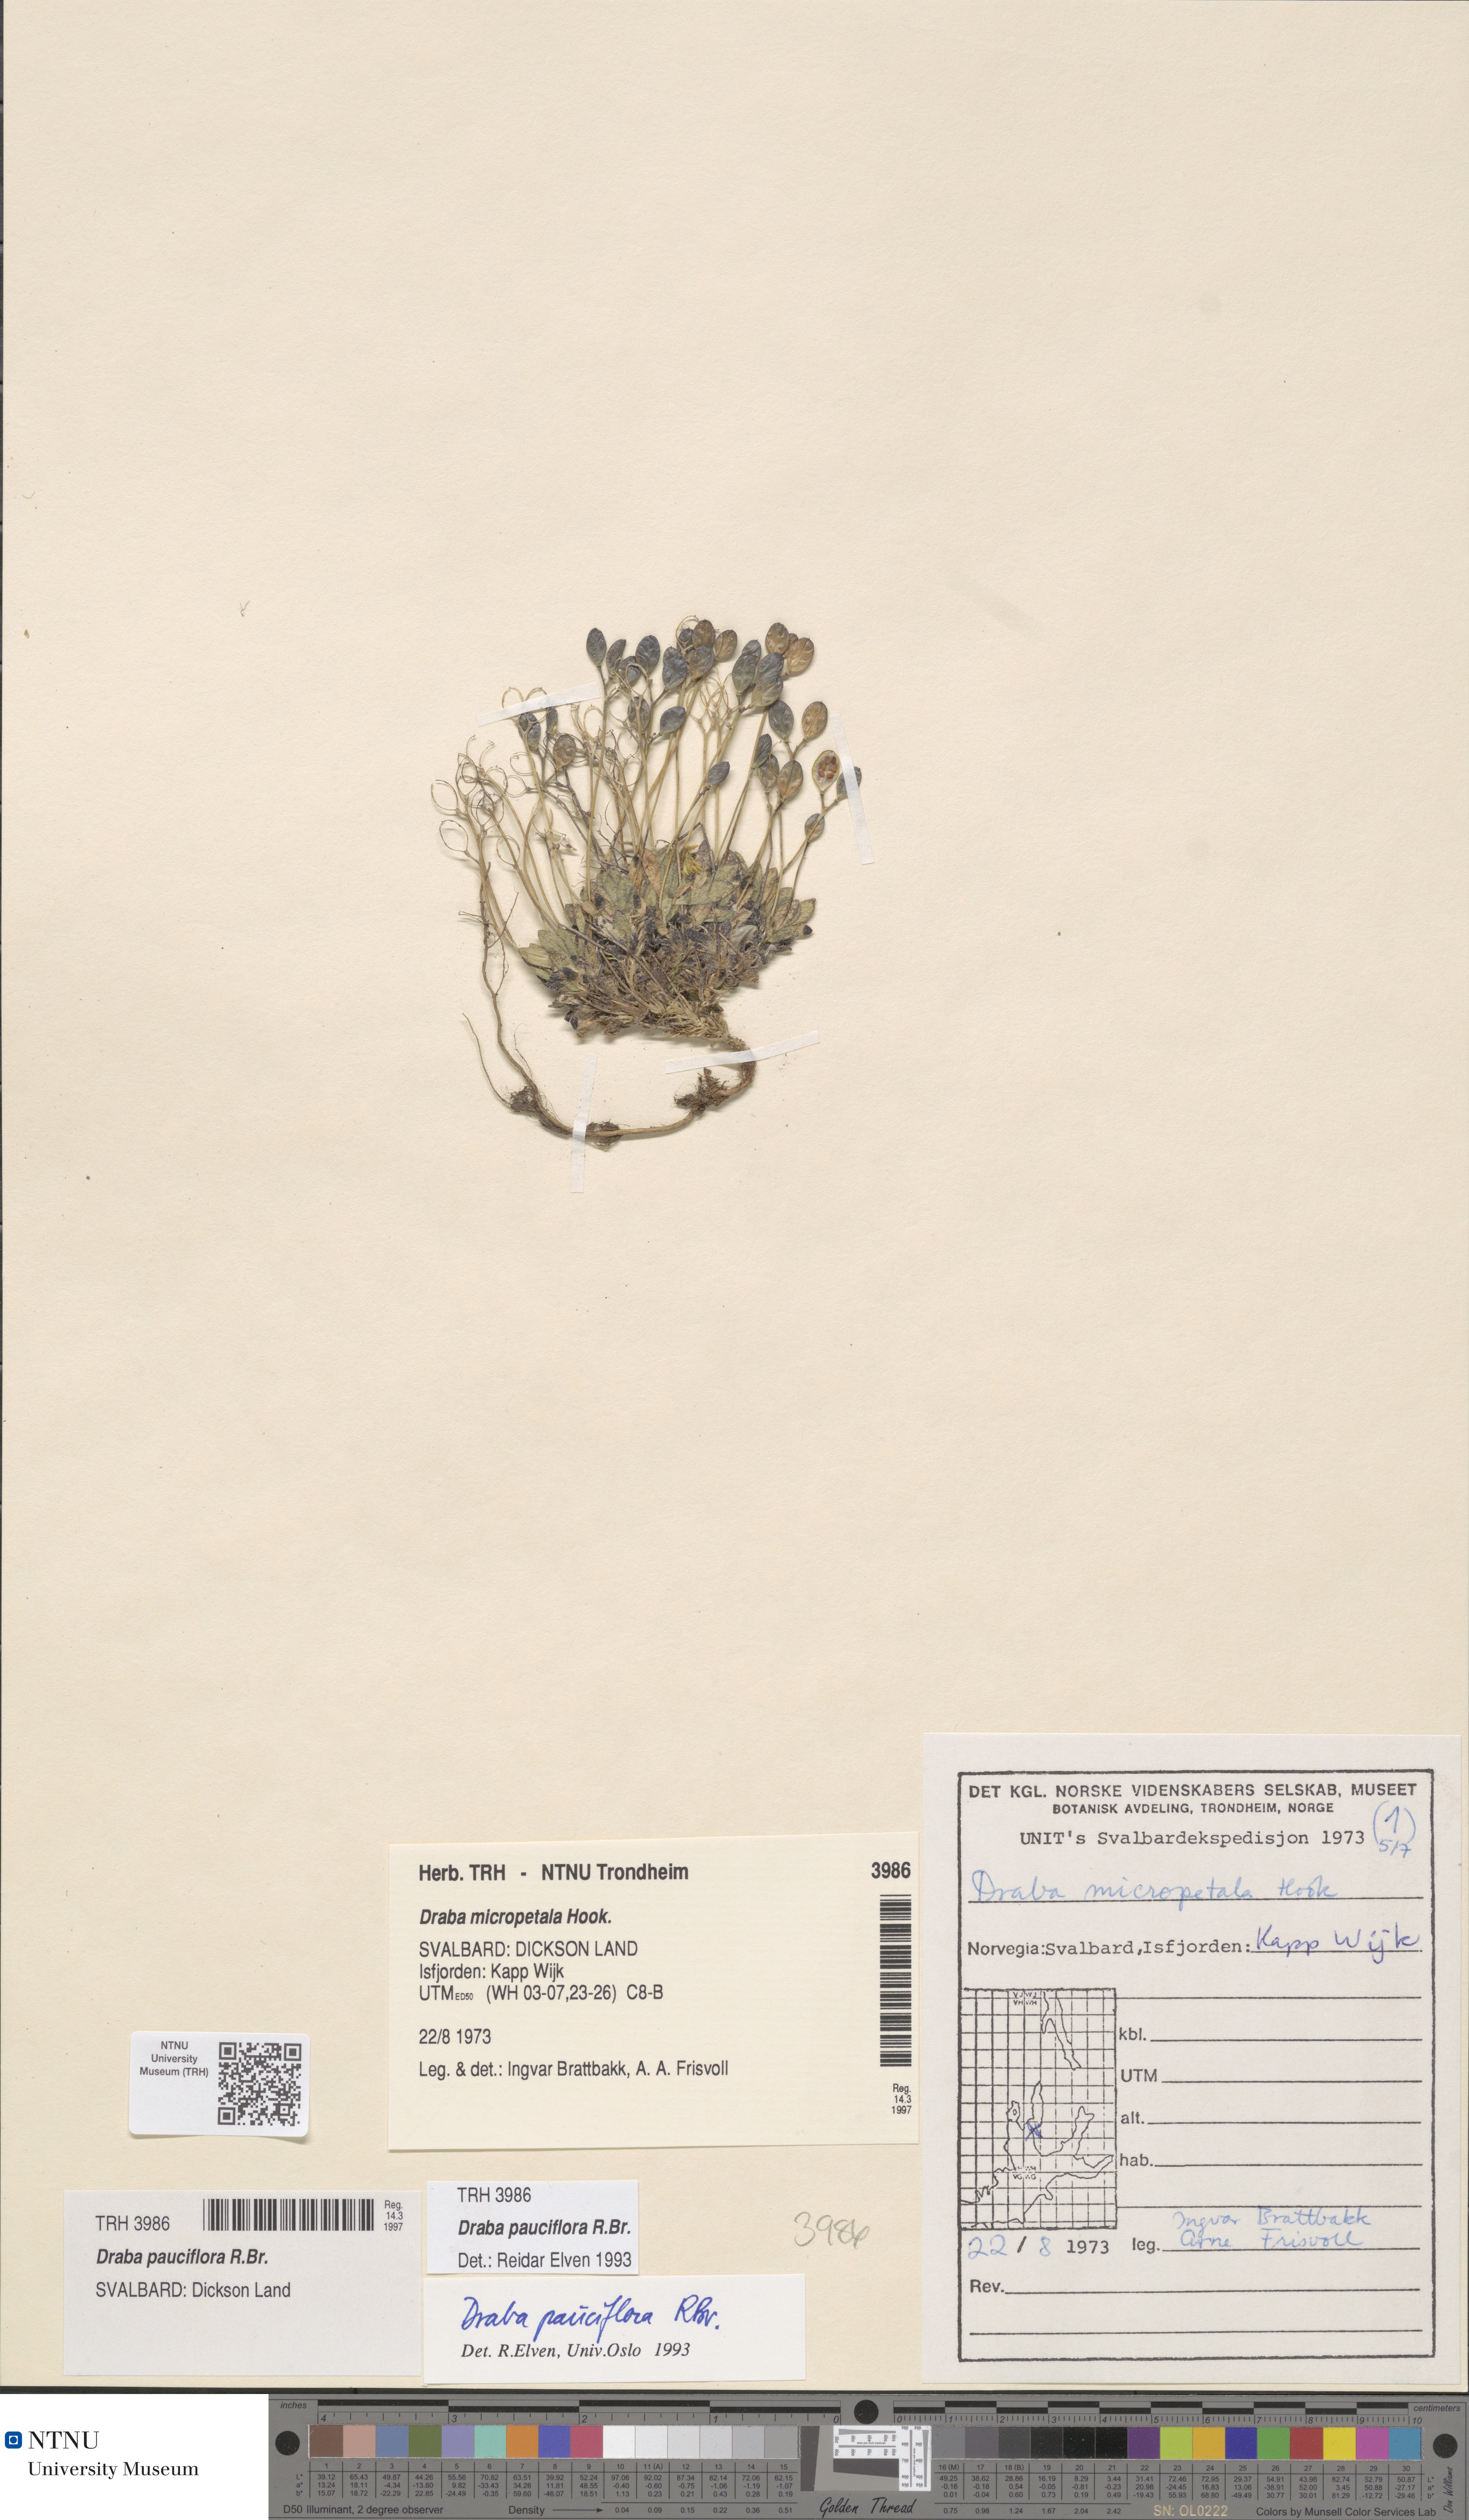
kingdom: Plantae
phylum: Tracheophyta
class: Magnoliopsida
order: Brassicales
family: Brassicaceae
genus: Draba
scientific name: Draba pauciflora
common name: Few-flowered draba
